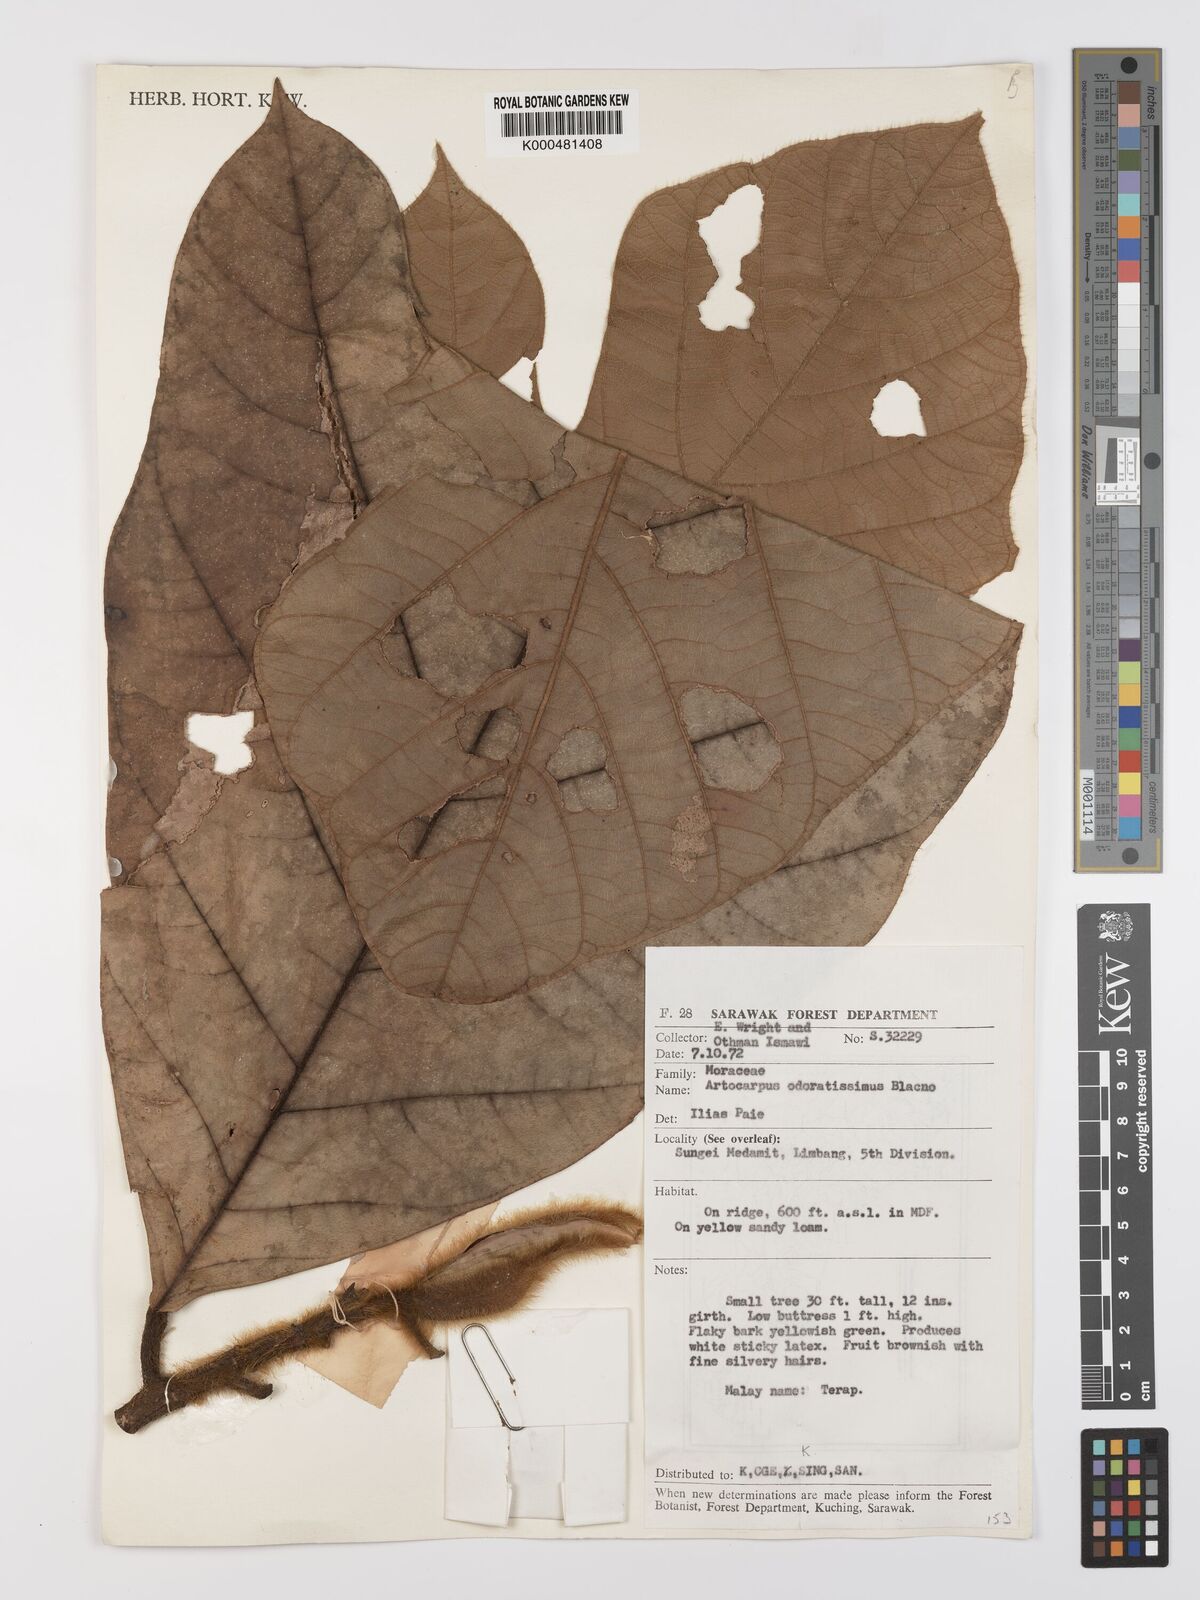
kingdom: Plantae
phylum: Tracheophyta
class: Magnoliopsida
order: Rosales
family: Moraceae
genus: Artocarpus
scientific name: Artocarpus odoratissimus
